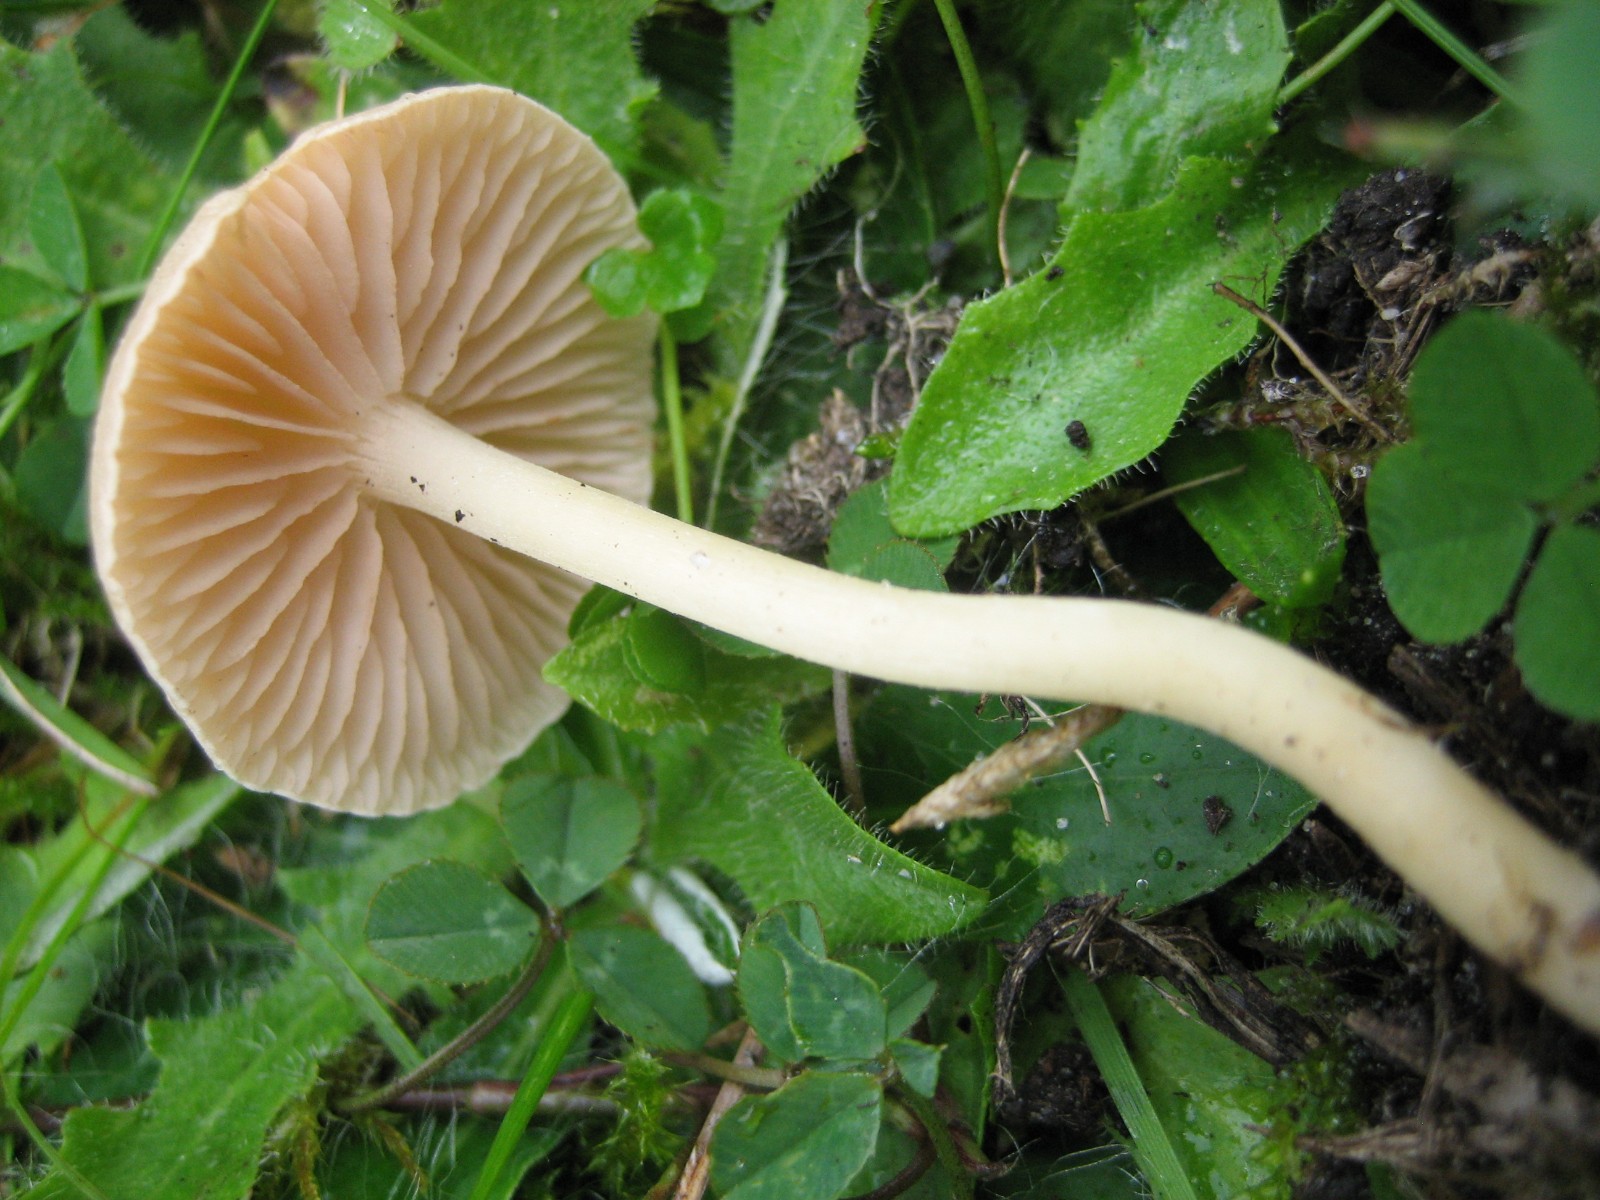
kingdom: Fungi
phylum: Basidiomycota
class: Agaricomycetes
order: Agaricales
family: Entolomataceae
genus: Entoloma
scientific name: Entoloma sericellum
